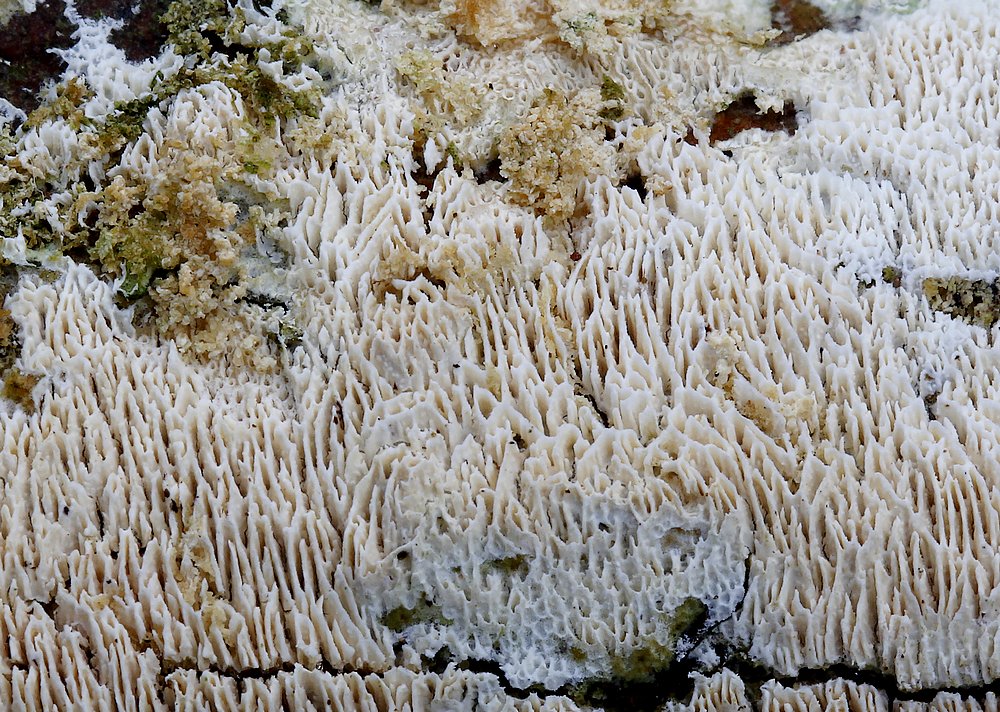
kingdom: Fungi
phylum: Basidiomycota
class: Agaricomycetes
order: Hymenochaetales
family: Schizoporaceae
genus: Xylodon
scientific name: Xylodon subtropicus
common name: labyrint-tandsvamp
